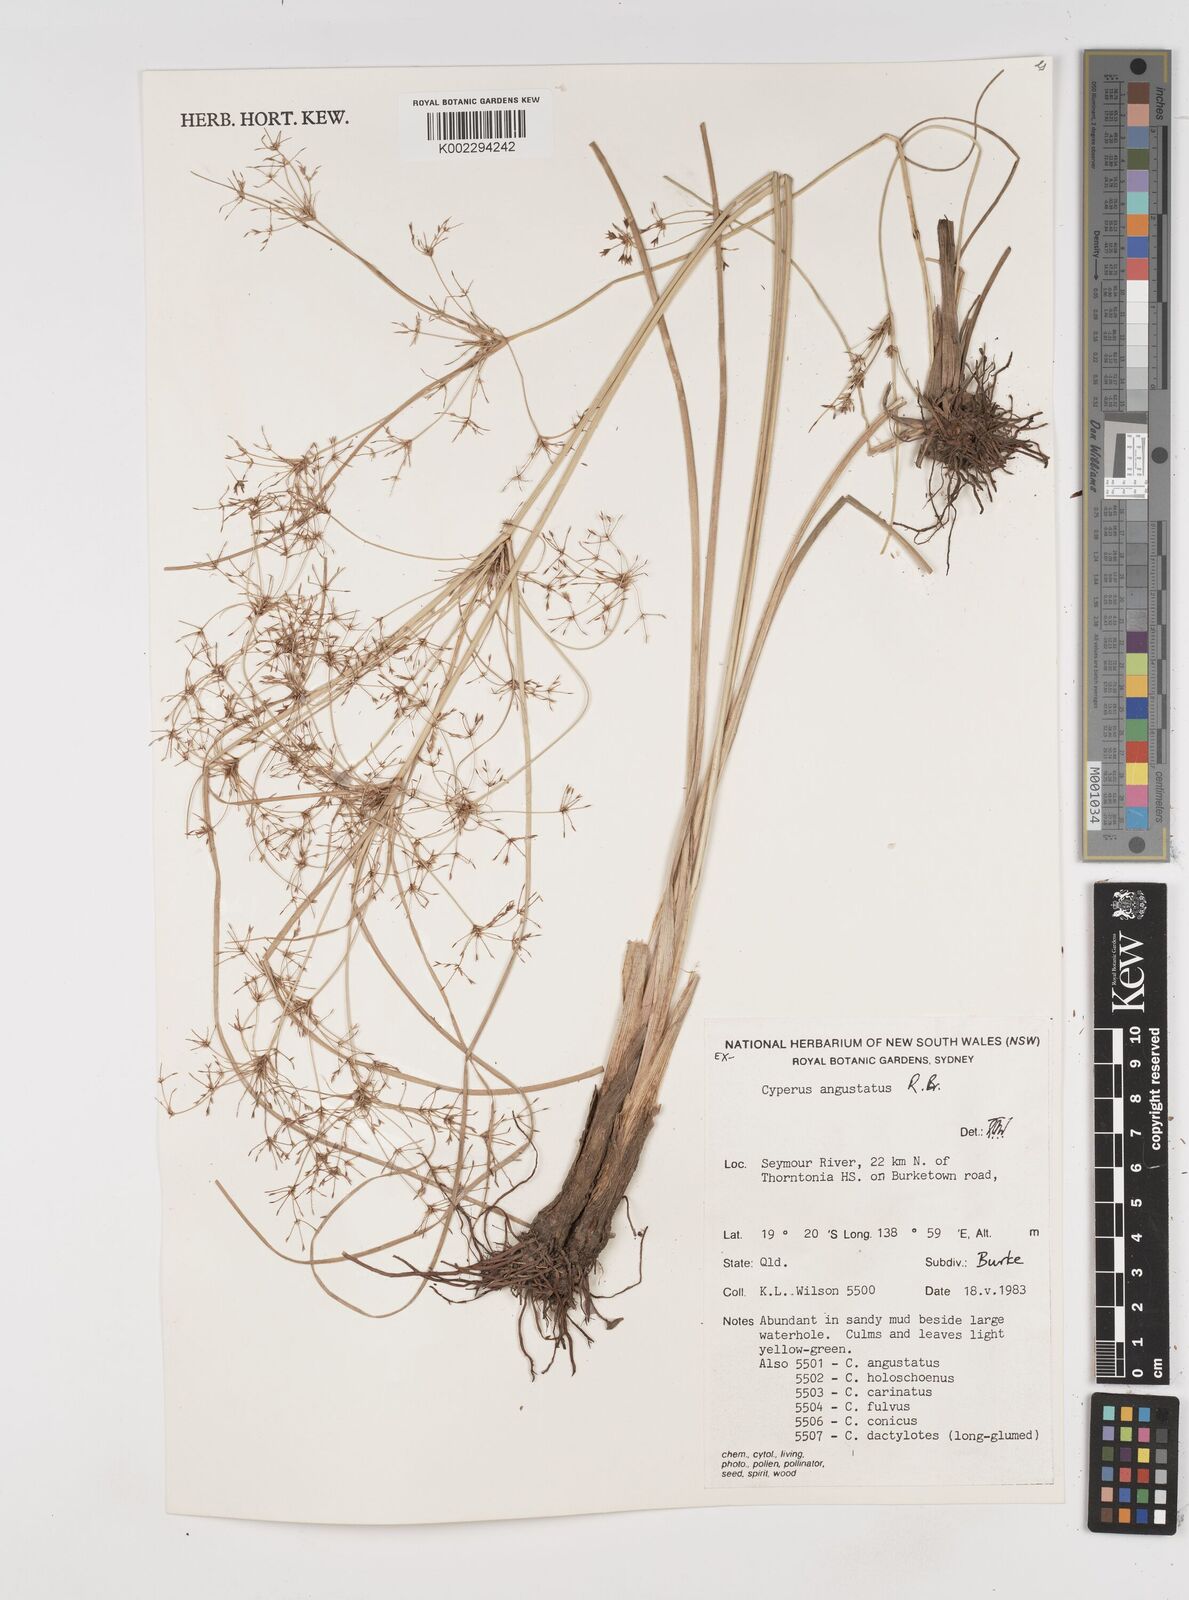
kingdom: Plantae
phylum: Tracheophyta
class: Liliopsida
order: Poales
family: Cyperaceae
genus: Cyperus
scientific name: Cyperus angustatus
